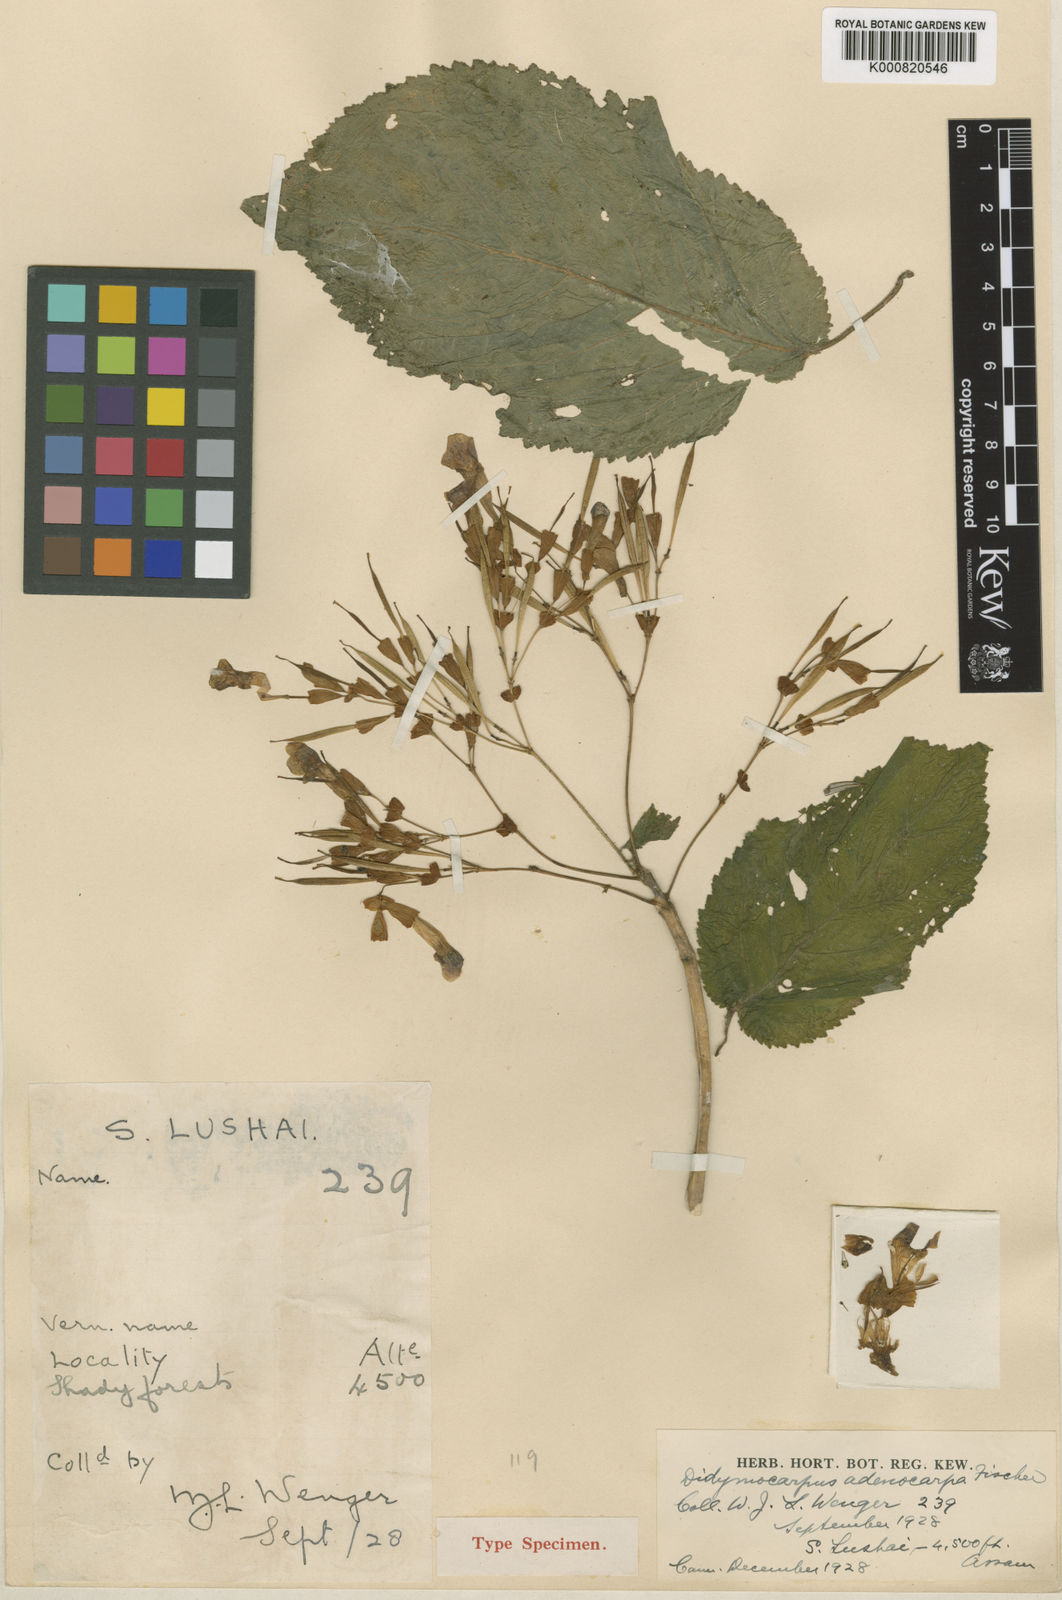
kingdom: Plantae
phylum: Tracheophyta
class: Magnoliopsida
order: Lamiales
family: Gesneriaceae
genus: Didymocarpus
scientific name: Didymocarpus adenocarpus
